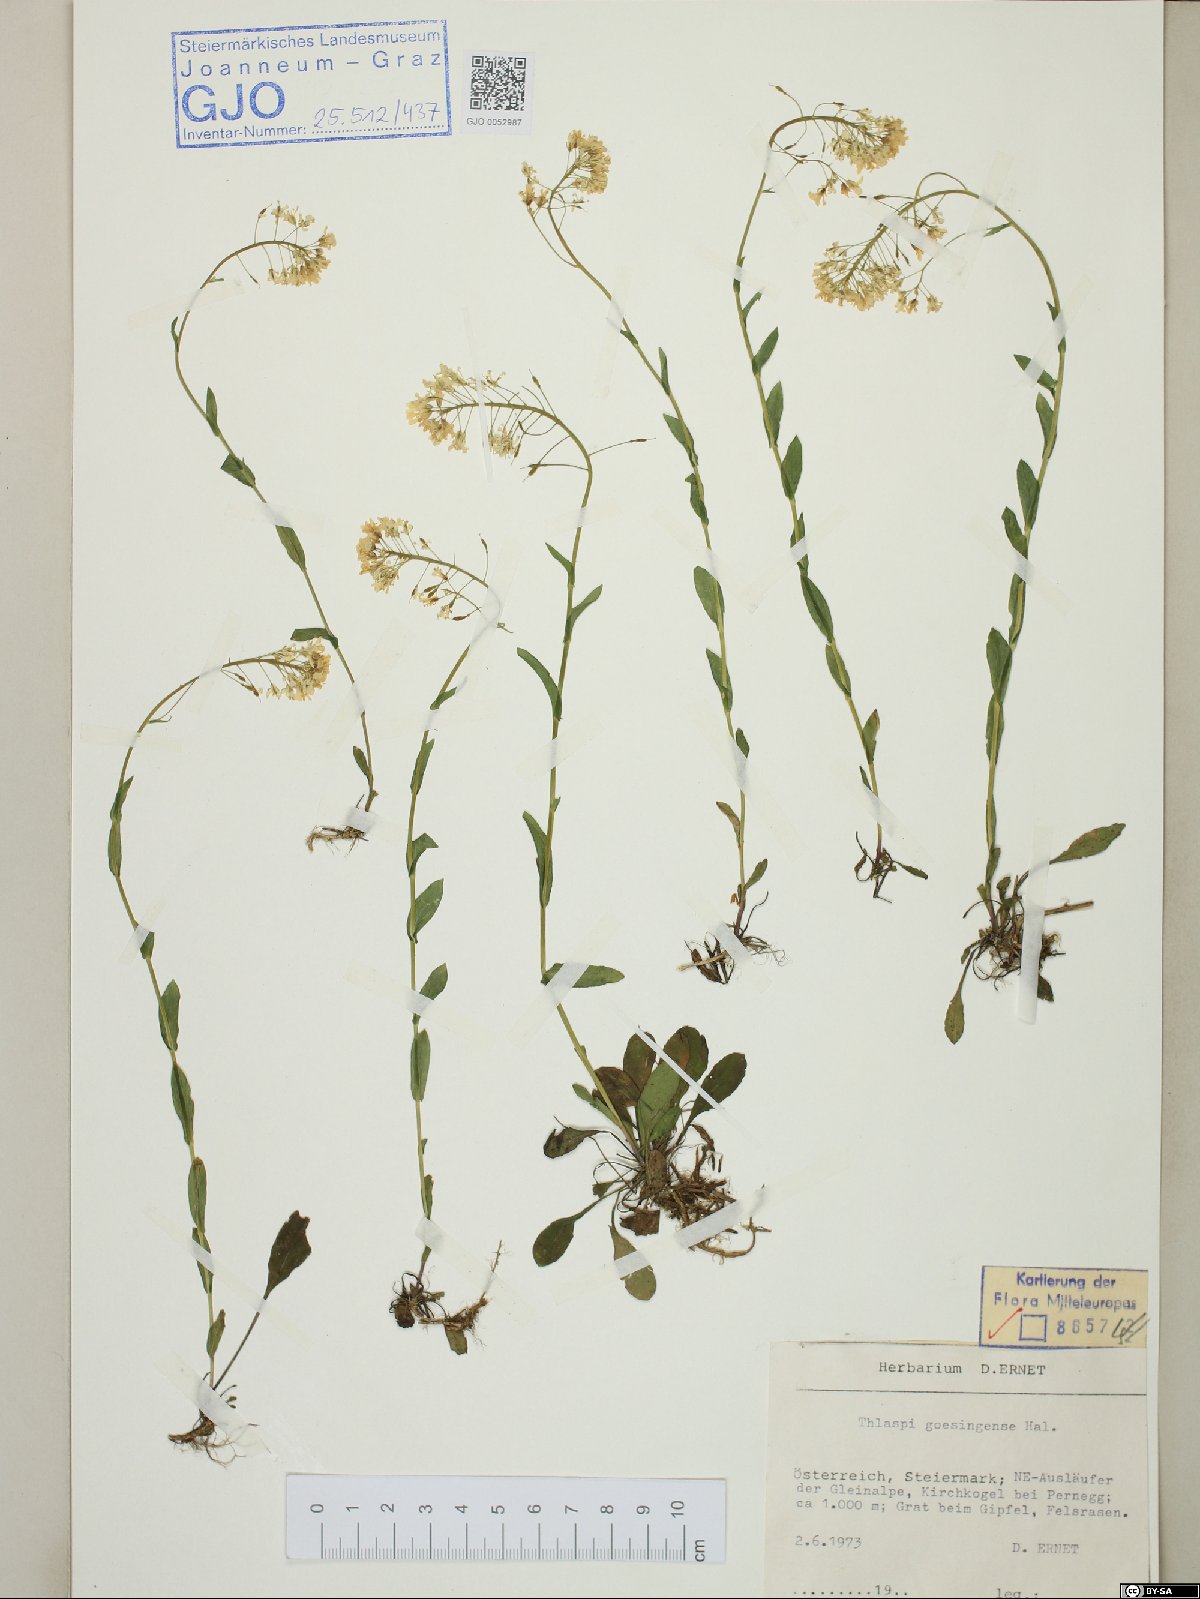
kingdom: Plantae
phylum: Tracheophyta
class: Magnoliopsida
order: Brassicales
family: Brassicaceae
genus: Noccaea
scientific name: Noccaea goesingensis
